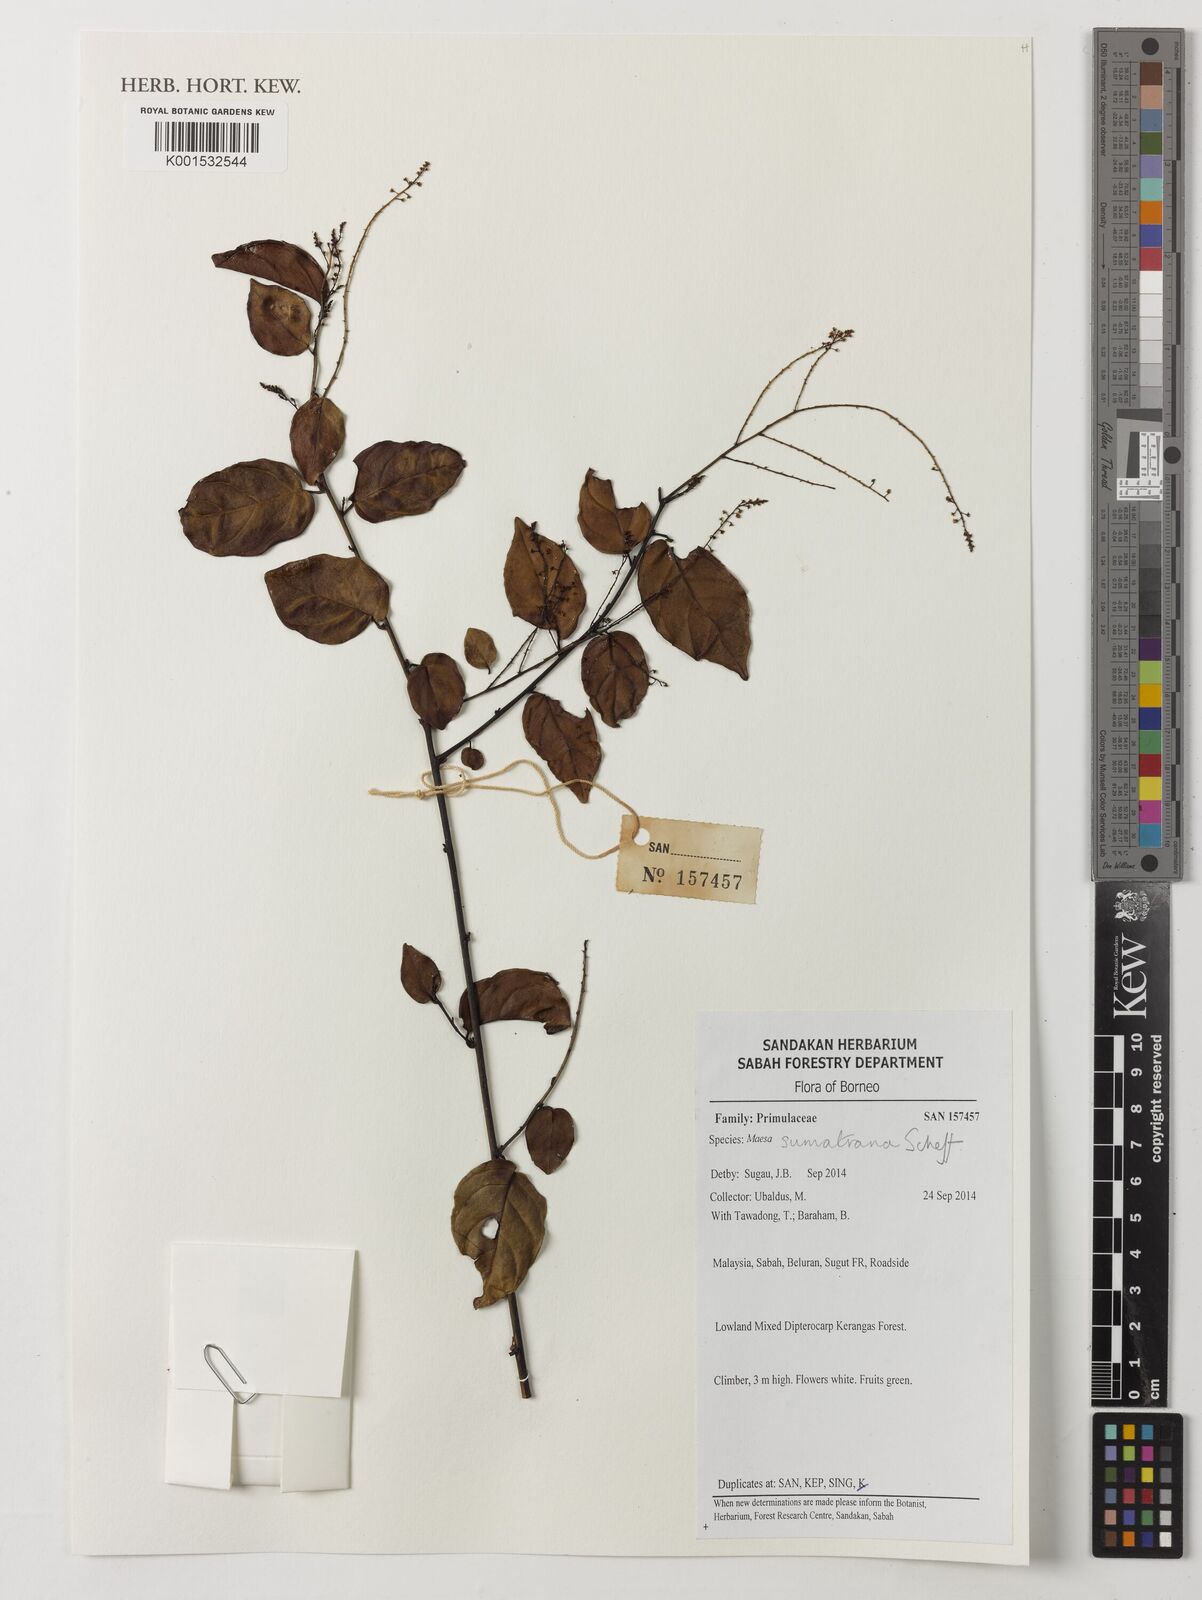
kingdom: Plantae
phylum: Tracheophyta
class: Magnoliopsida
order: Ericales
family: Primulaceae
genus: Maesa
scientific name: Maesa sumatrana
